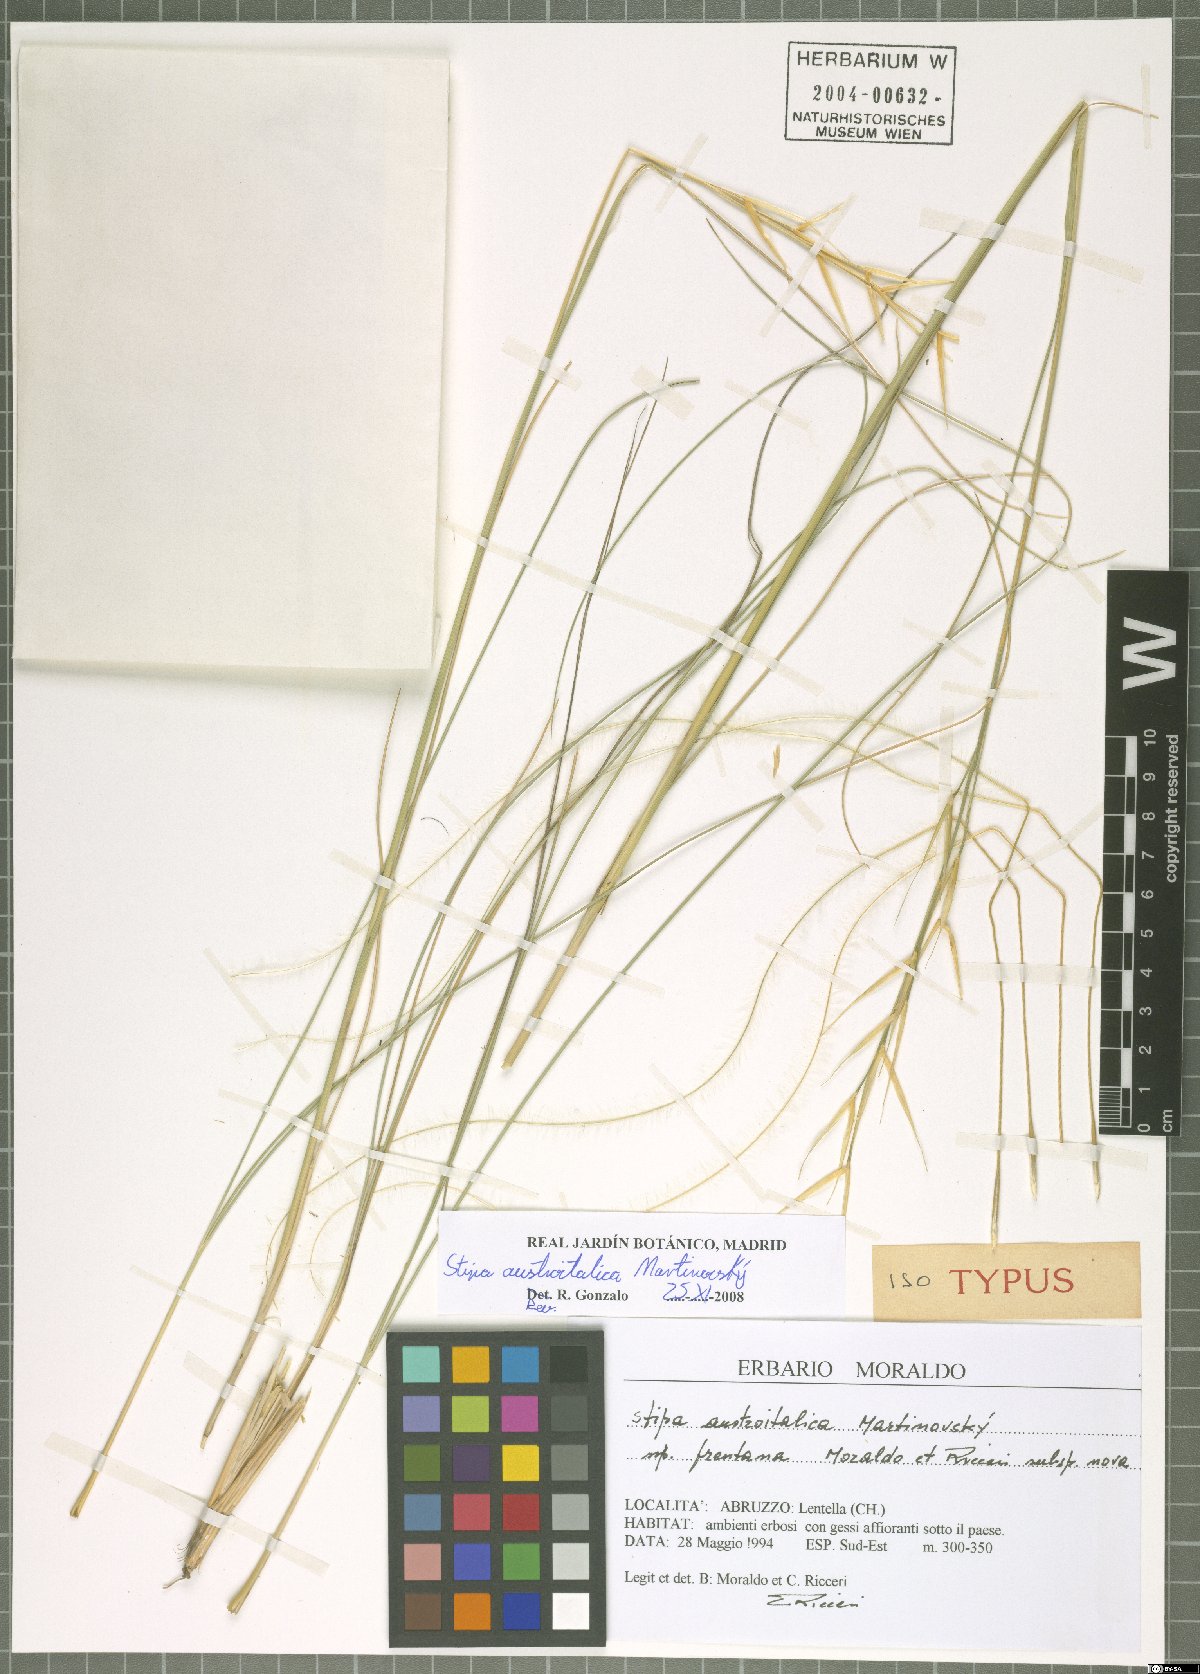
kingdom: Plantae
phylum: Tracheophyta
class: Liliopsida
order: Poales
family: Poaceae
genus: Stipa
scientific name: Stipa austroitalica
